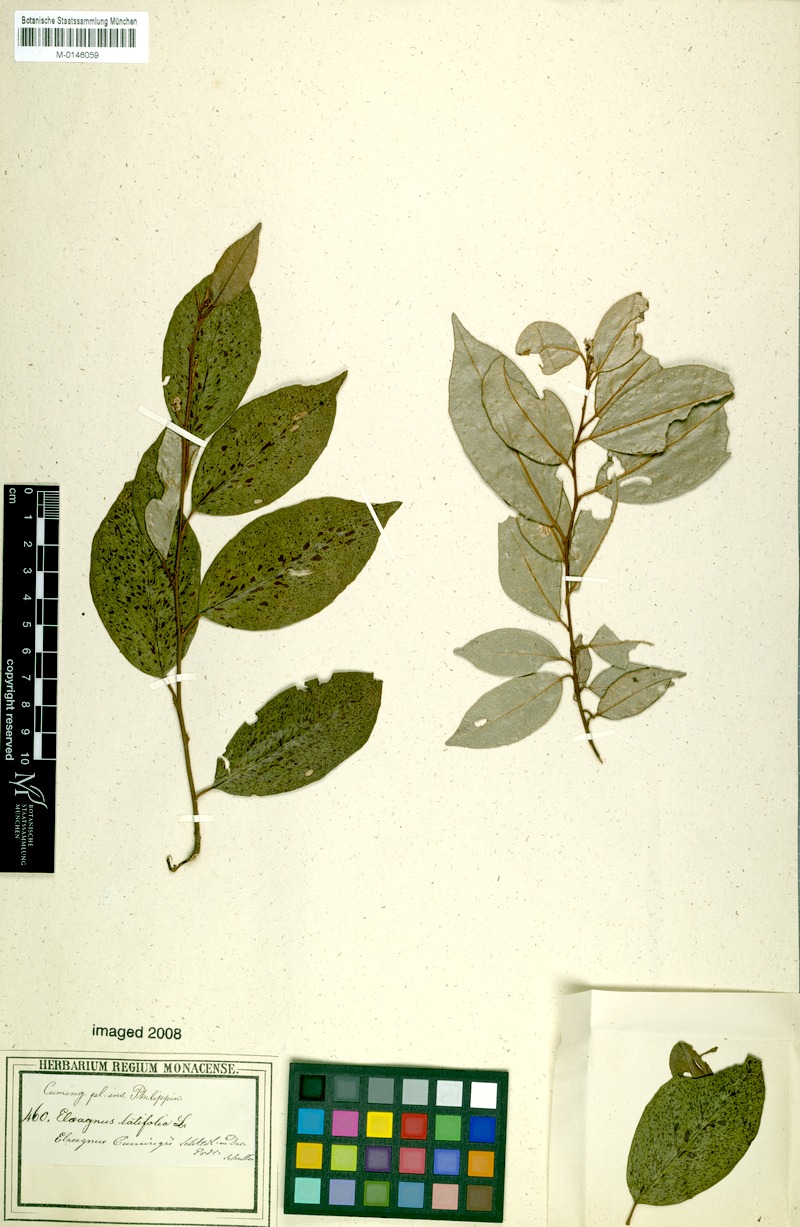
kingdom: Plantae
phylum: Tracheophyta
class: Magnoliopsida
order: Rosales
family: Elaeagnaceae
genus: Elaeagnus
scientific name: Elaeagnus triflora
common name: Millaa millaa-vine
